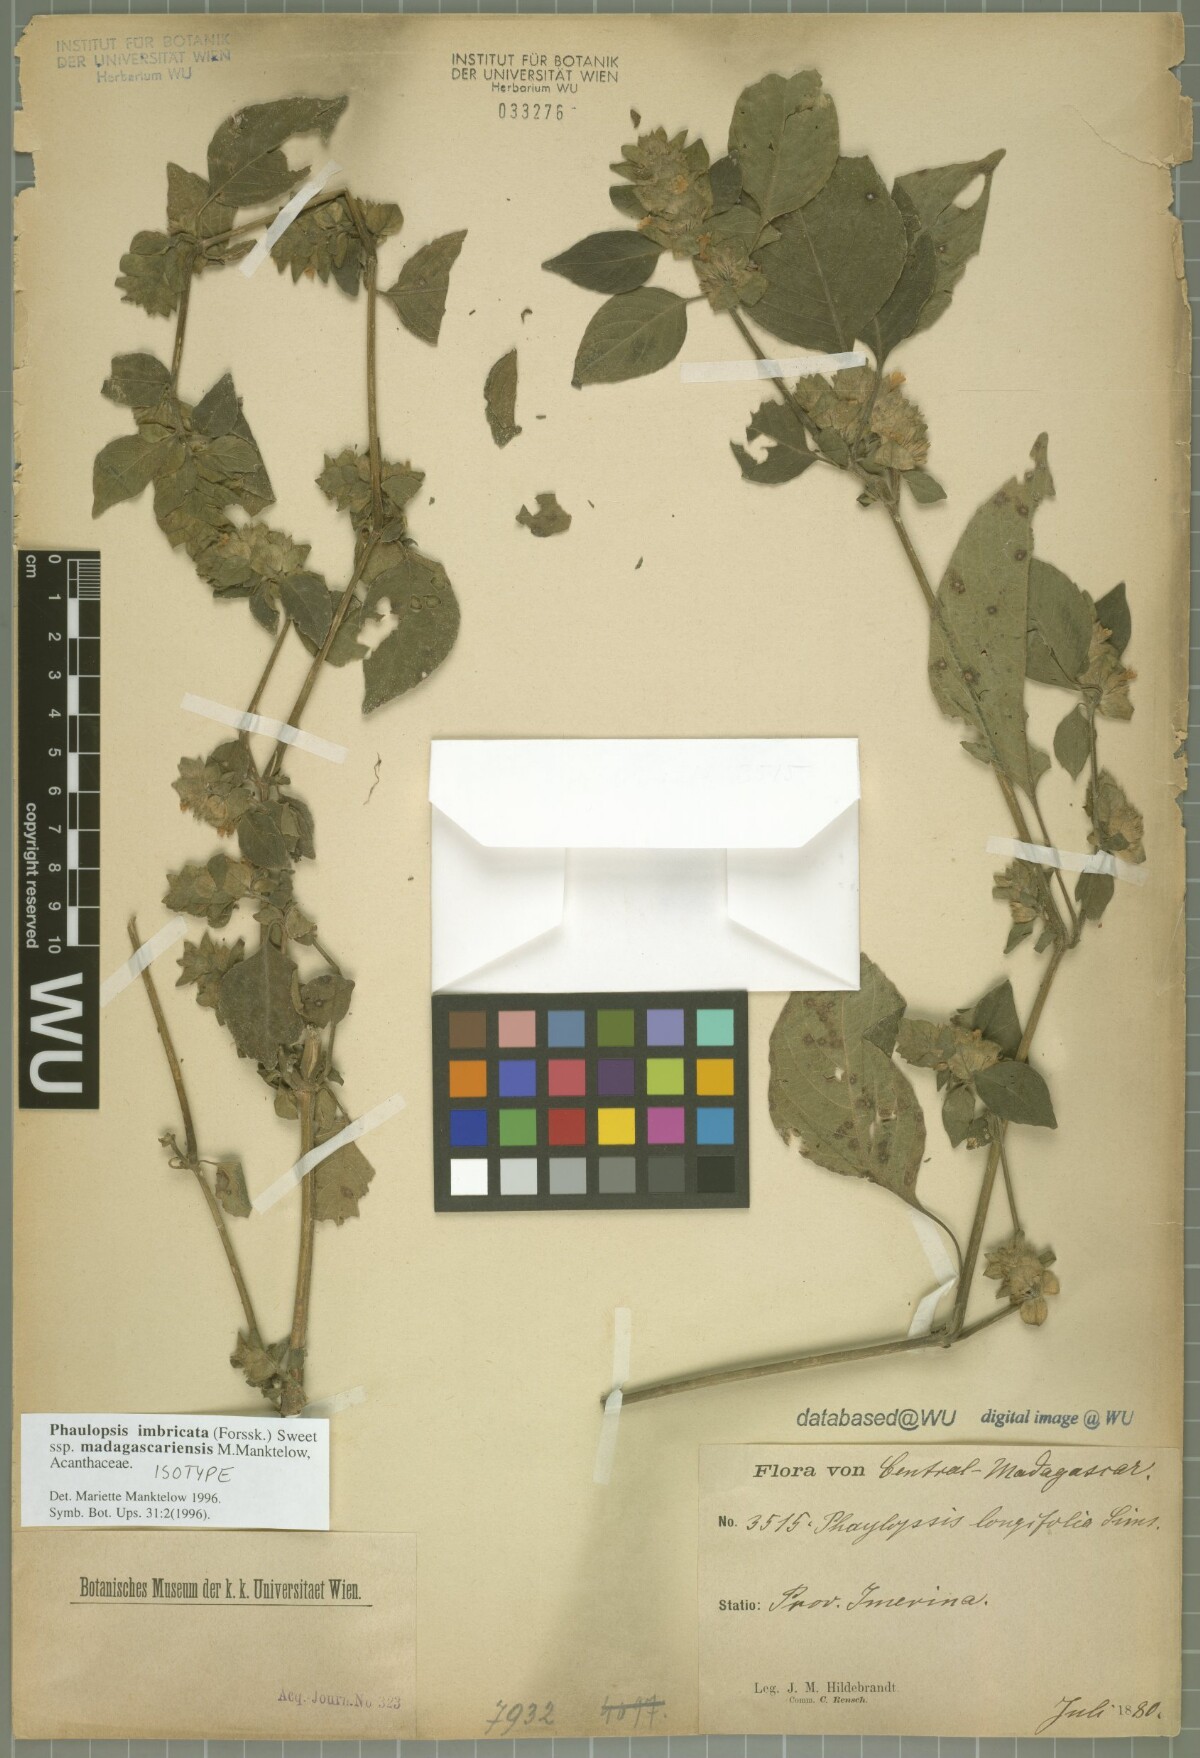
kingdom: Plantae
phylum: Tracheophyta
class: Magnoliopsida
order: Lamiales
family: Acanthaceae
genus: Phaulopsis
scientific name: Phaulopsis imbricata
